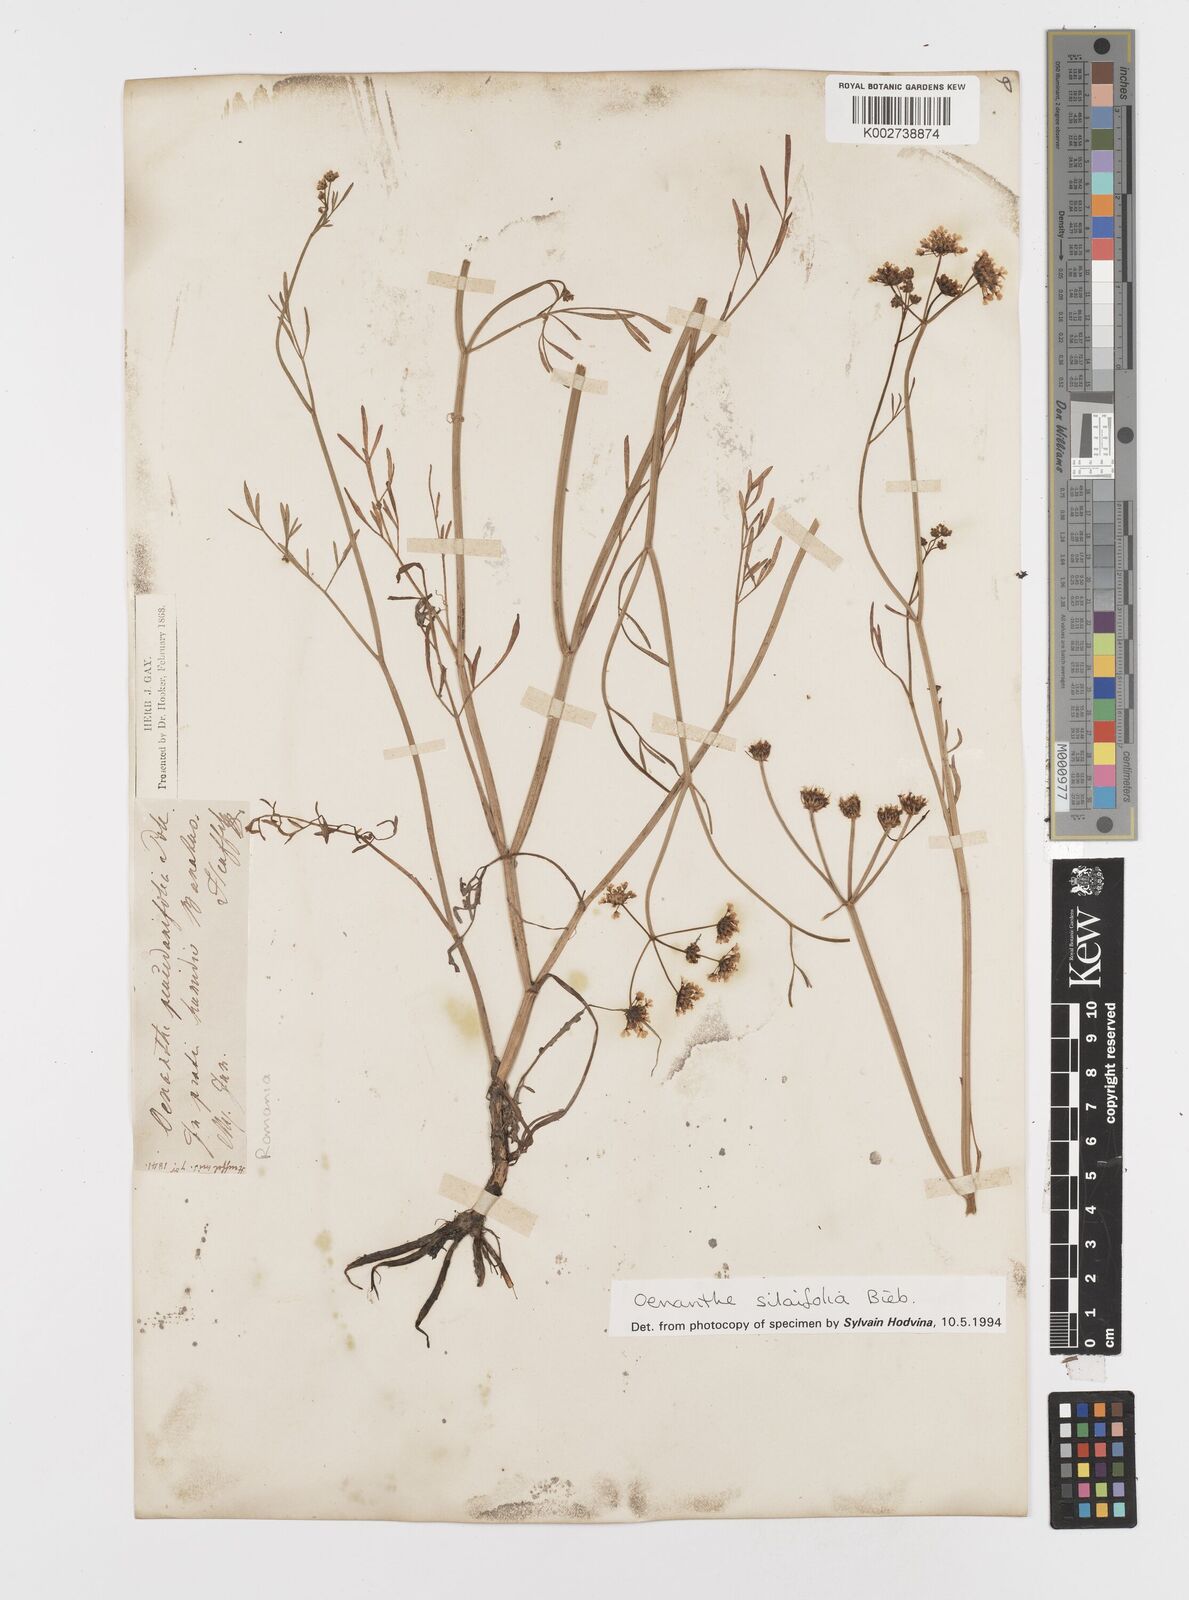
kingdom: Plantae
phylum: Tracheophyta
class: Magnoliopsida
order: Apiales
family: Apiaceae
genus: Oenanthe
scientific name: Oenanthe silaifolia
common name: Narrow-leaved water-dropwort
